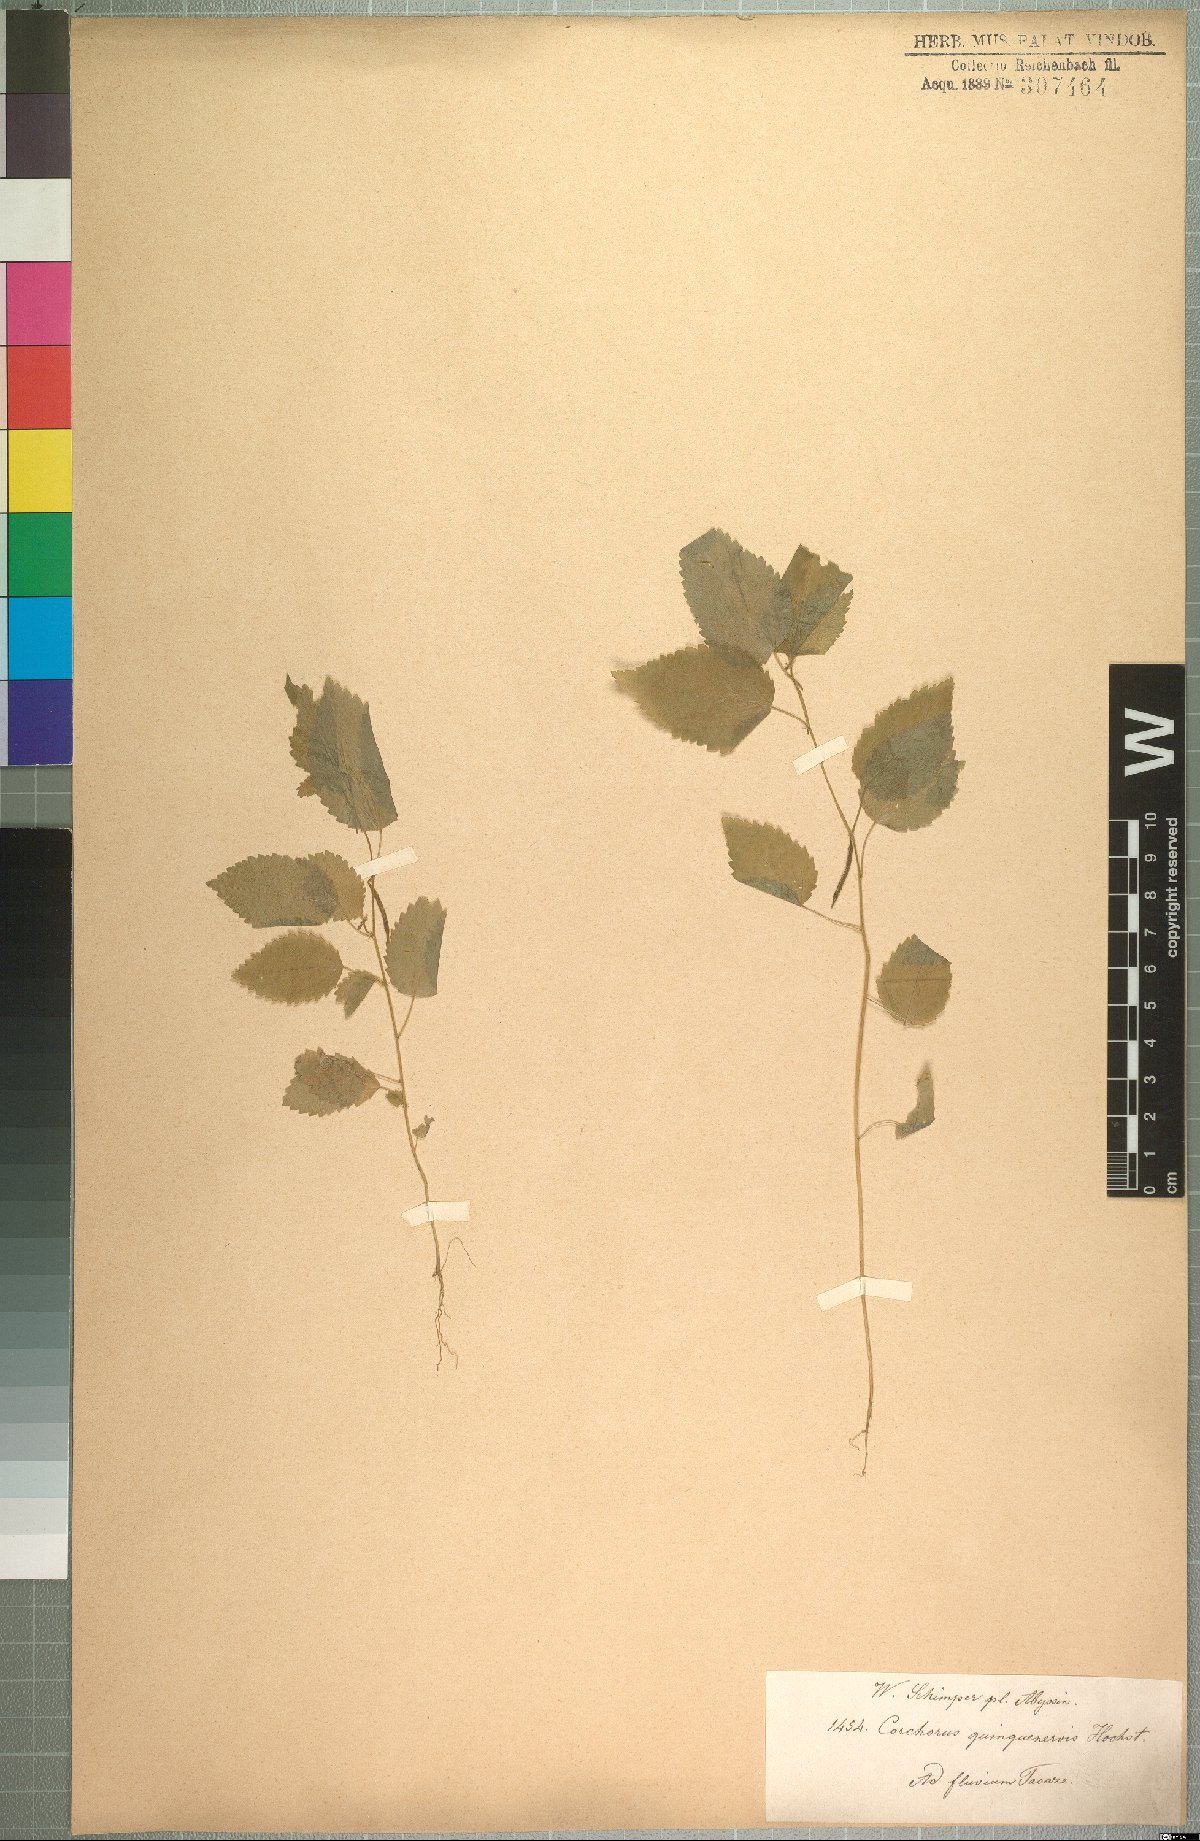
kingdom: Plantae
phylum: Tracheophyta
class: Magnoliopsida
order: Malvales
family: Malvaceae
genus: Corchorus
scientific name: Corchorus urticifolius
